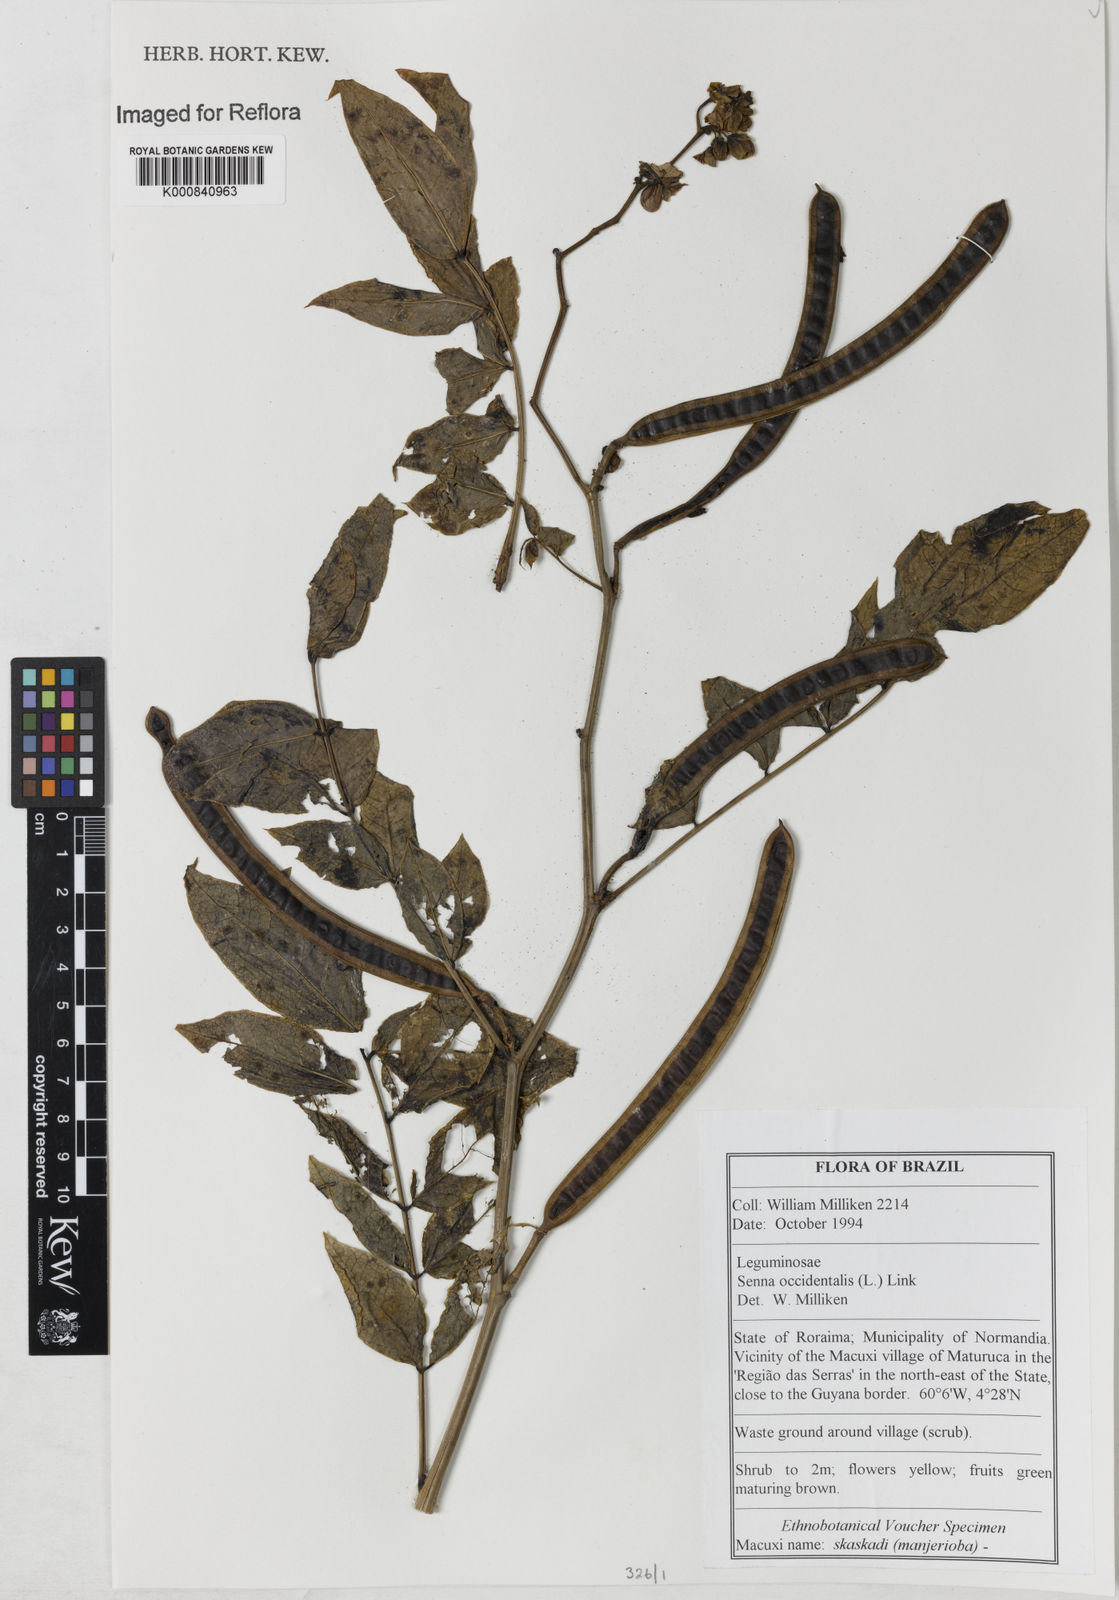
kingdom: Plantae
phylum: Tracheophyta
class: Magnoliopsida
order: Fabales
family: Fabaceae
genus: Senna
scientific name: Senna occidentalis
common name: Septicweed
